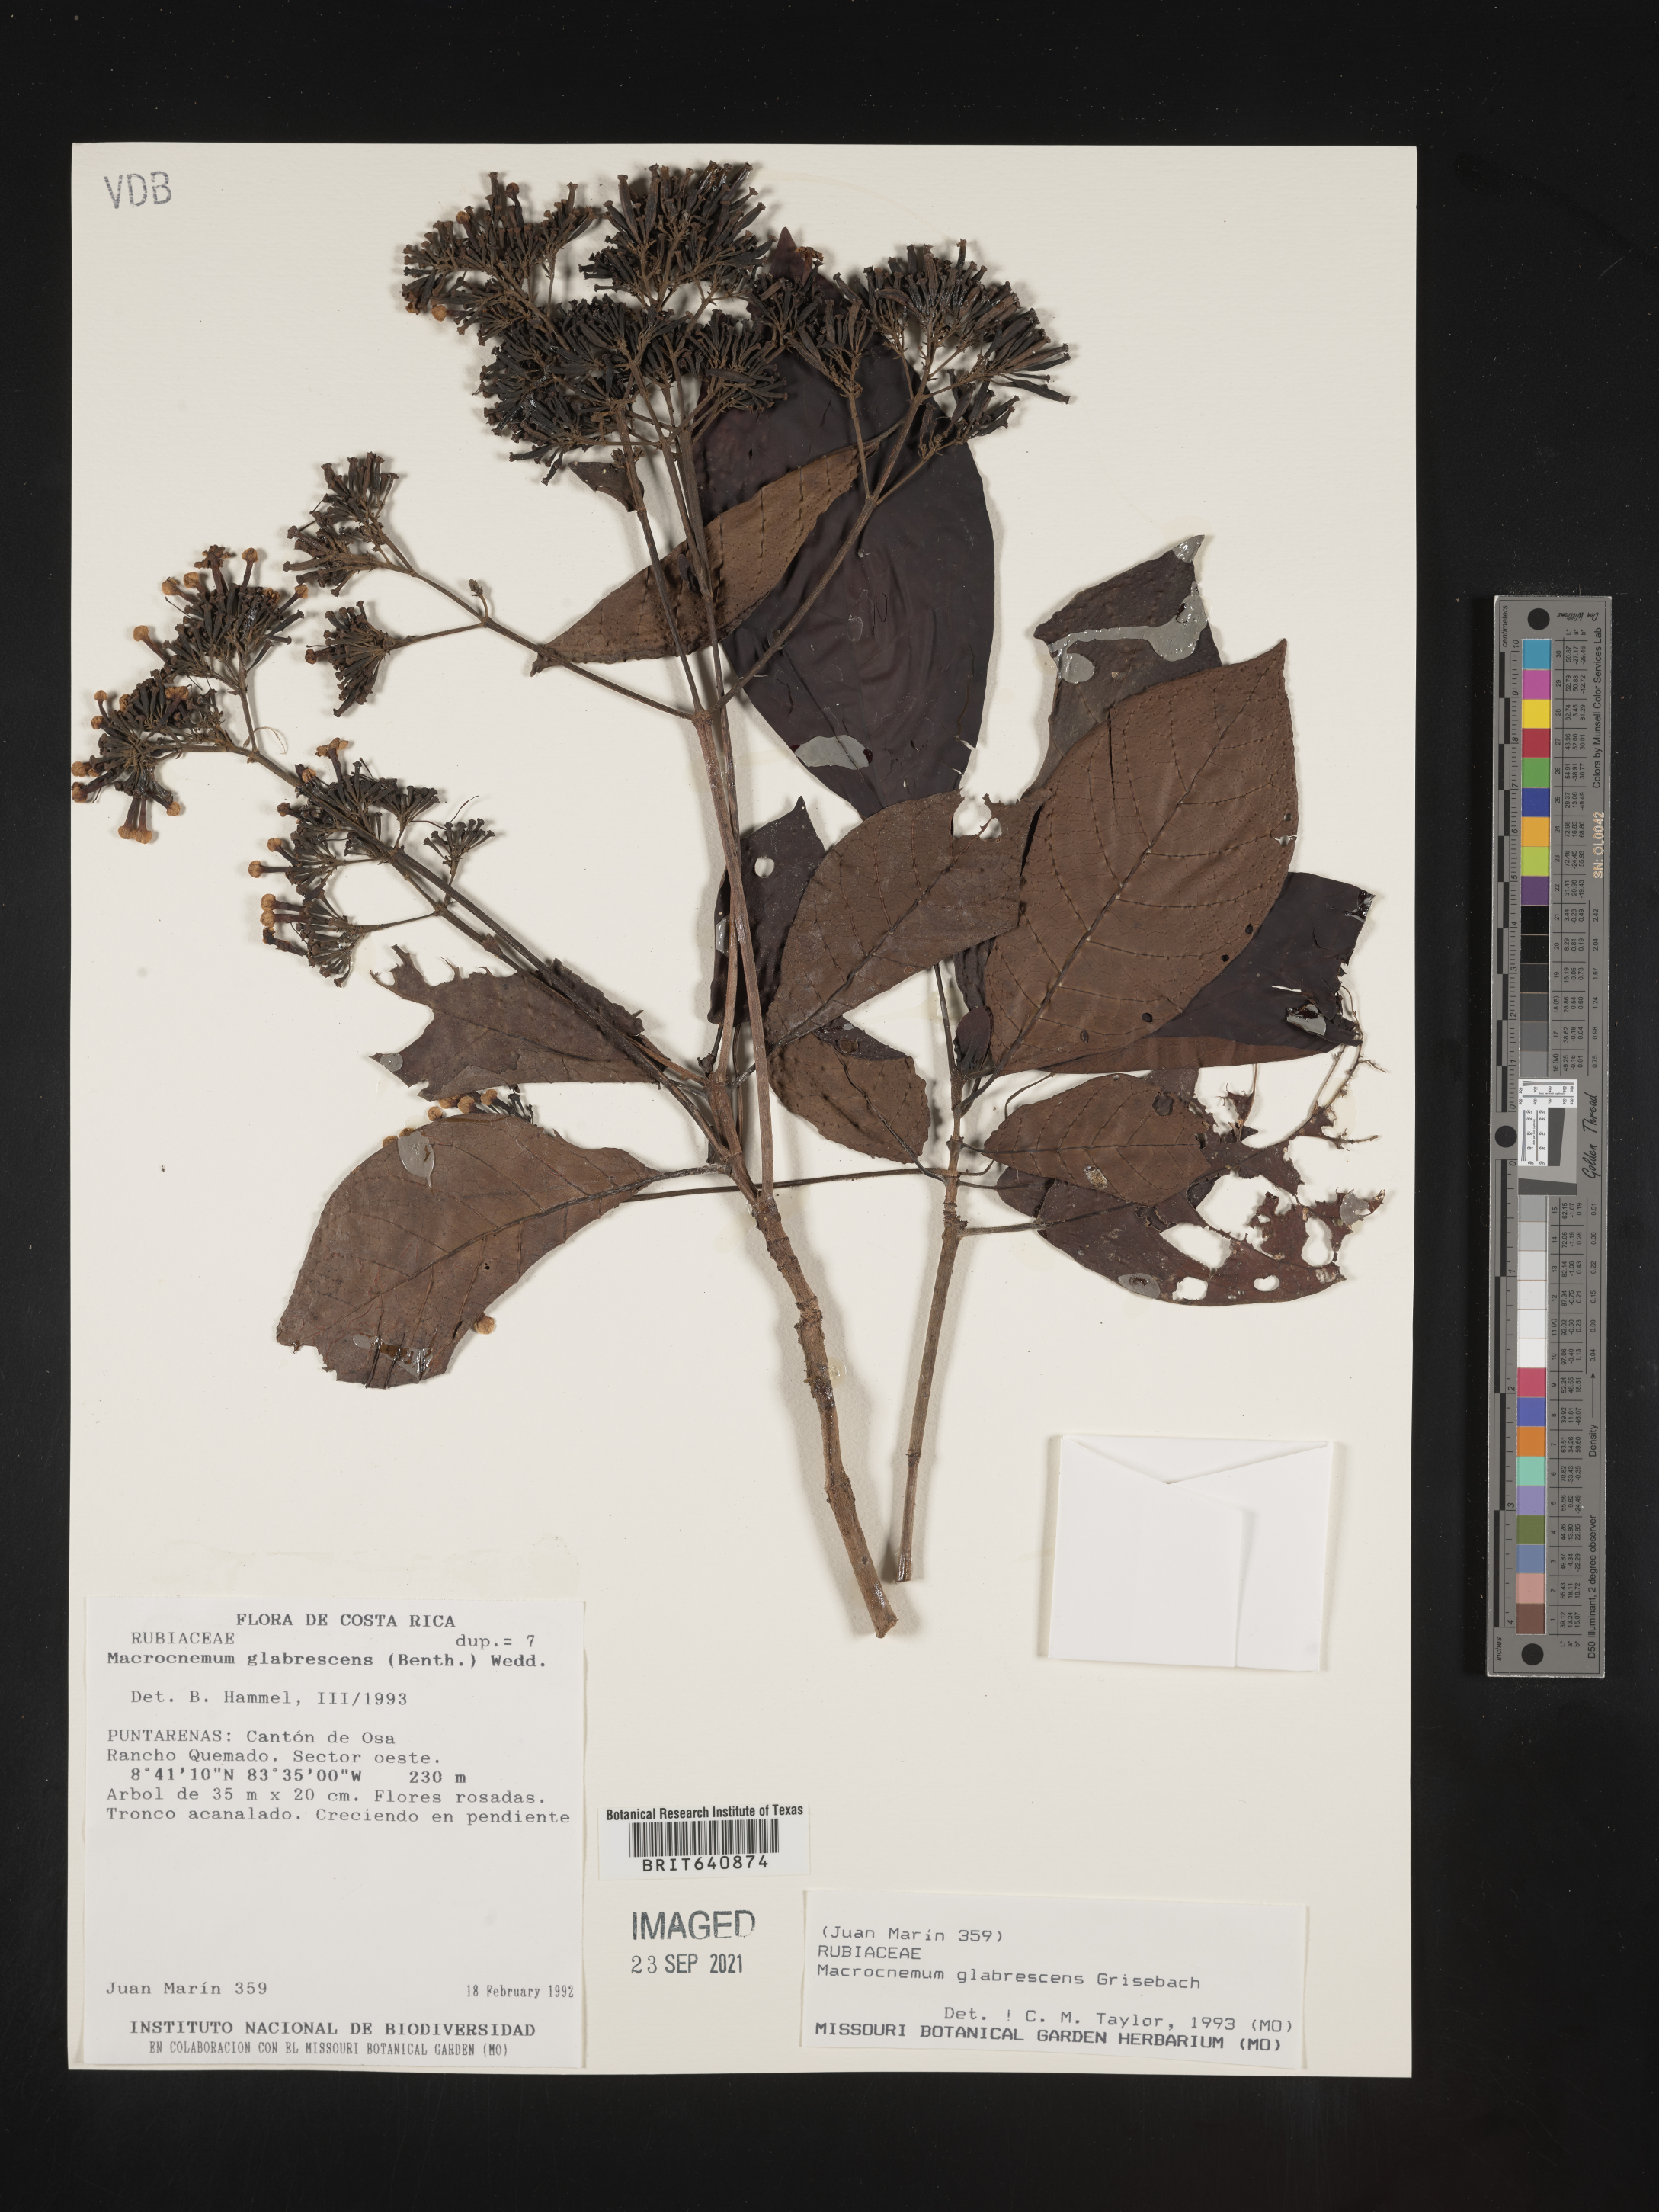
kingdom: Plantae
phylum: Tracheophyta
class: Magnoliopsida
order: Gentianales
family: Rubiaceae
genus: Macrocnemum
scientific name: Macrocnemum
